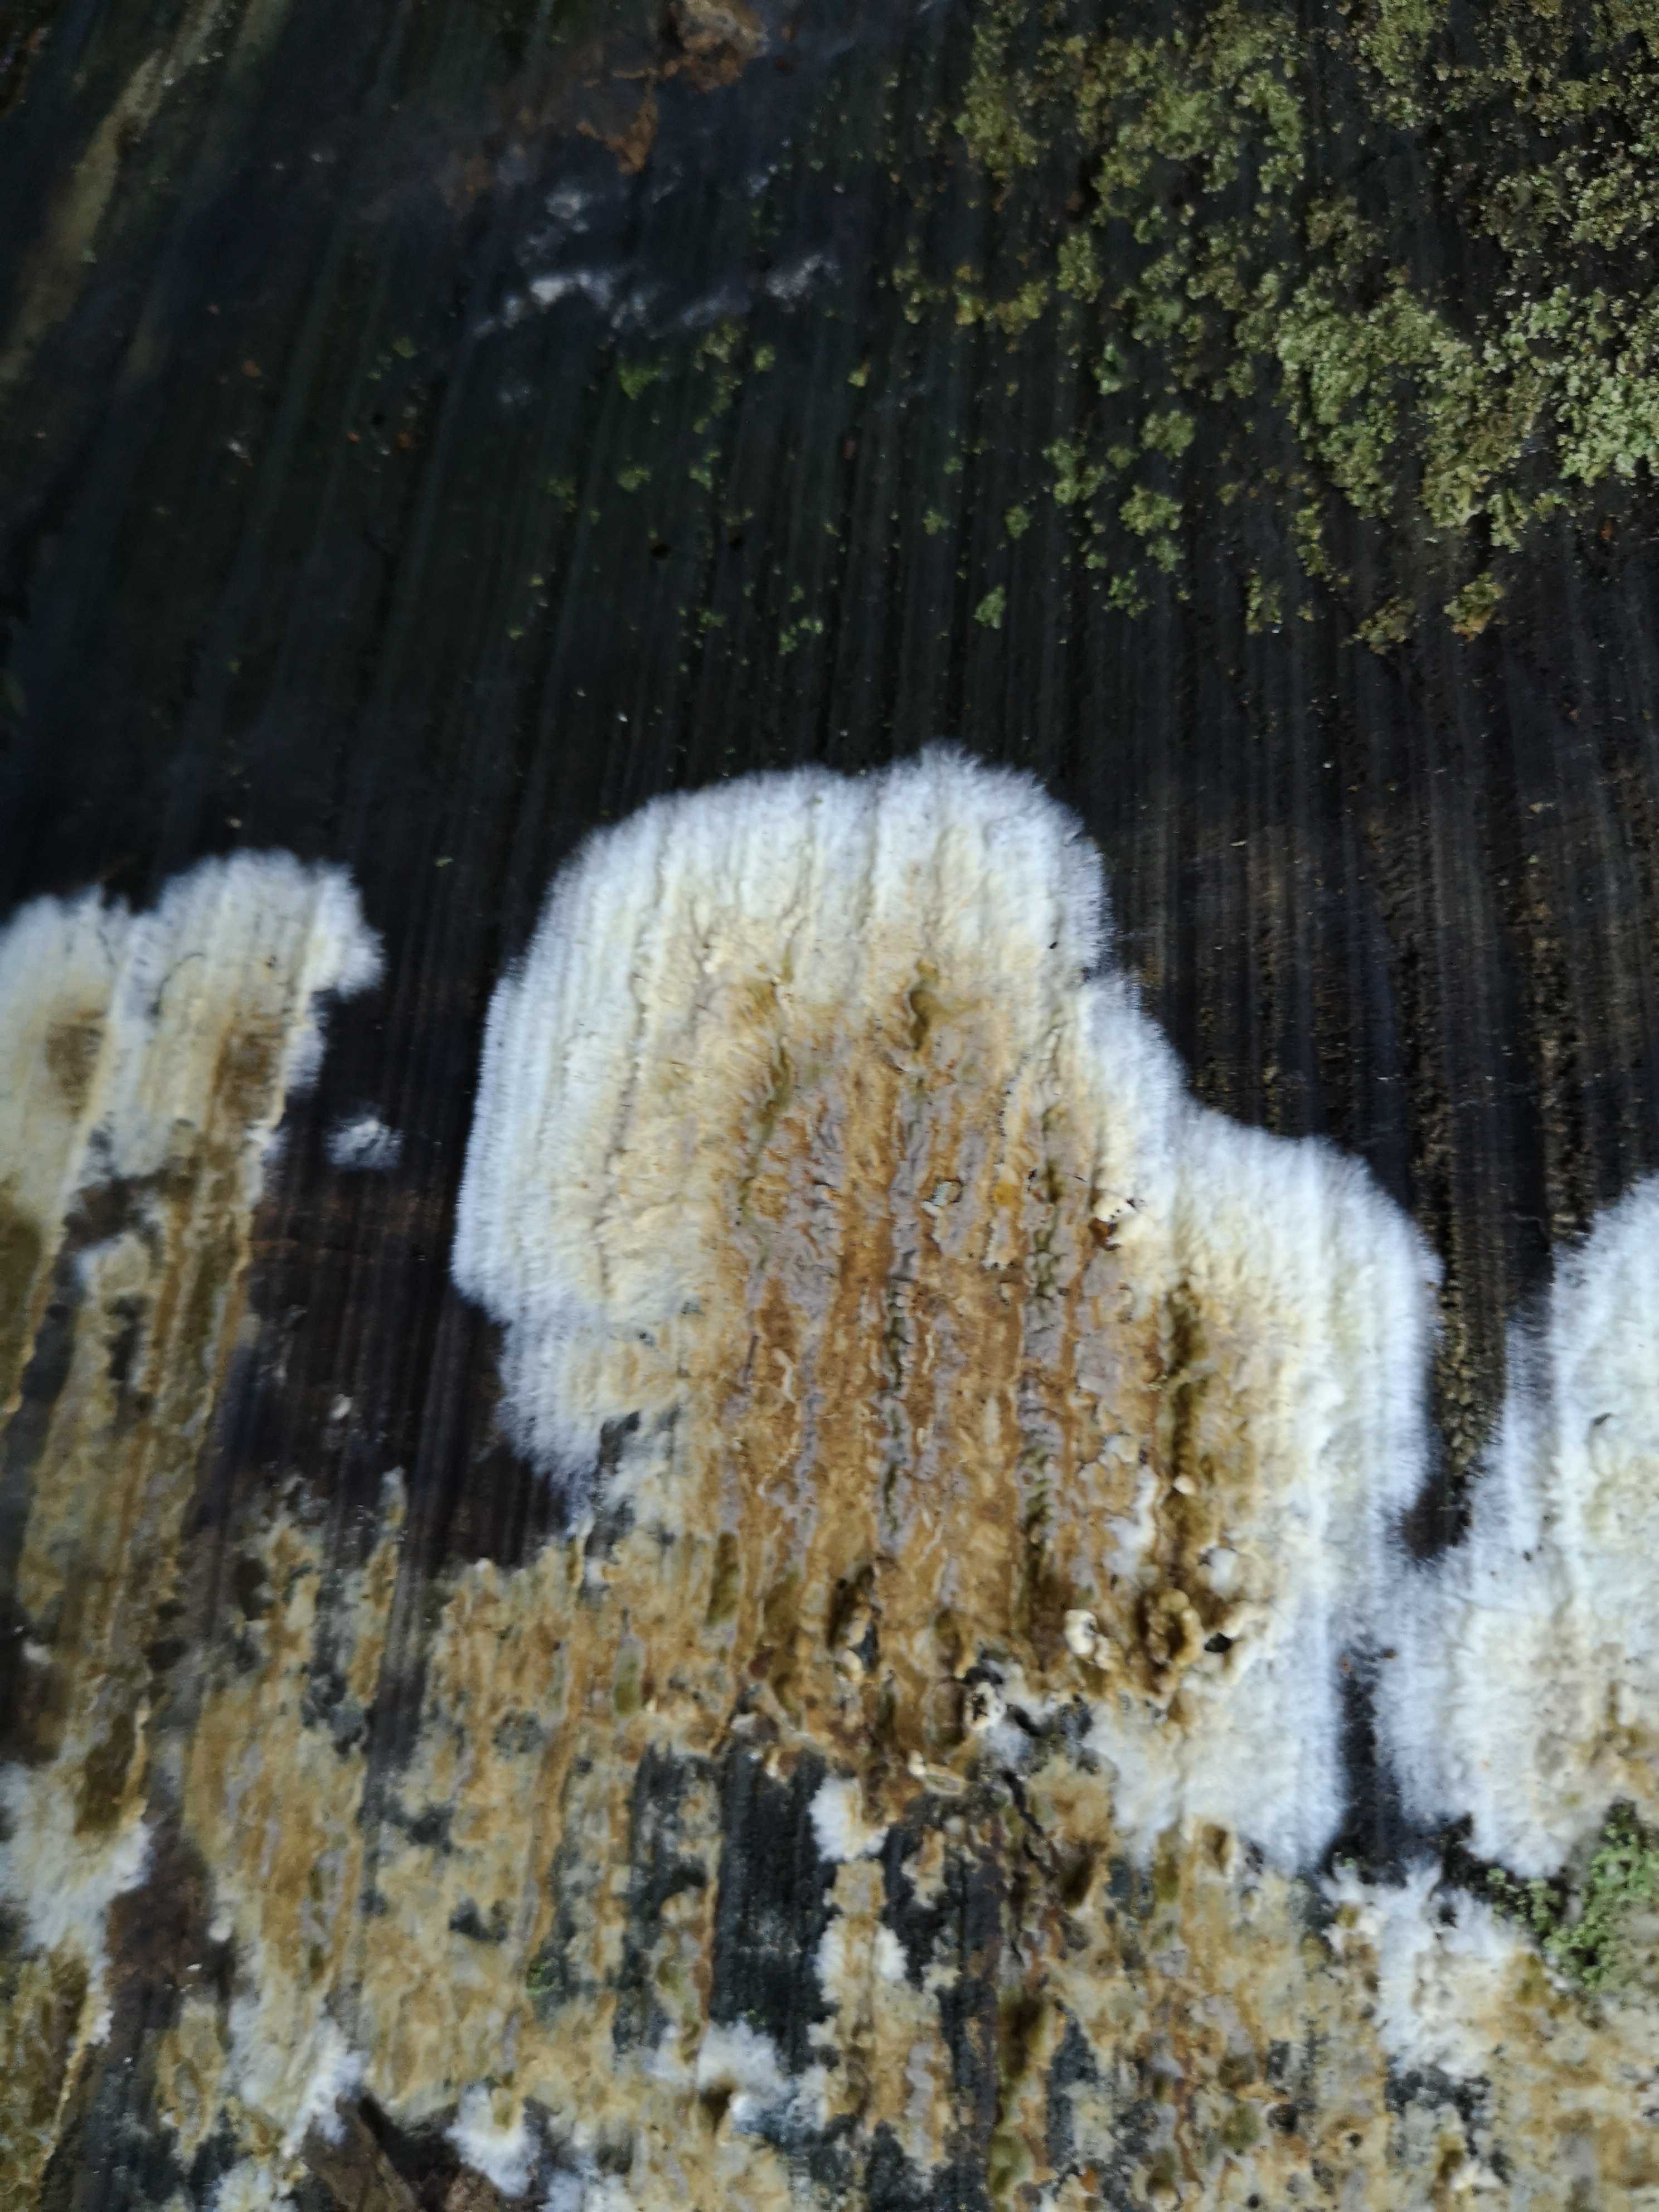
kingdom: Fungi
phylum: Basidiomycota
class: Agaricomycetes
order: Boletales
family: Coniophoraceae
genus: Coniophora
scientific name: Coniophora puteana
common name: gul tømmersvamp
